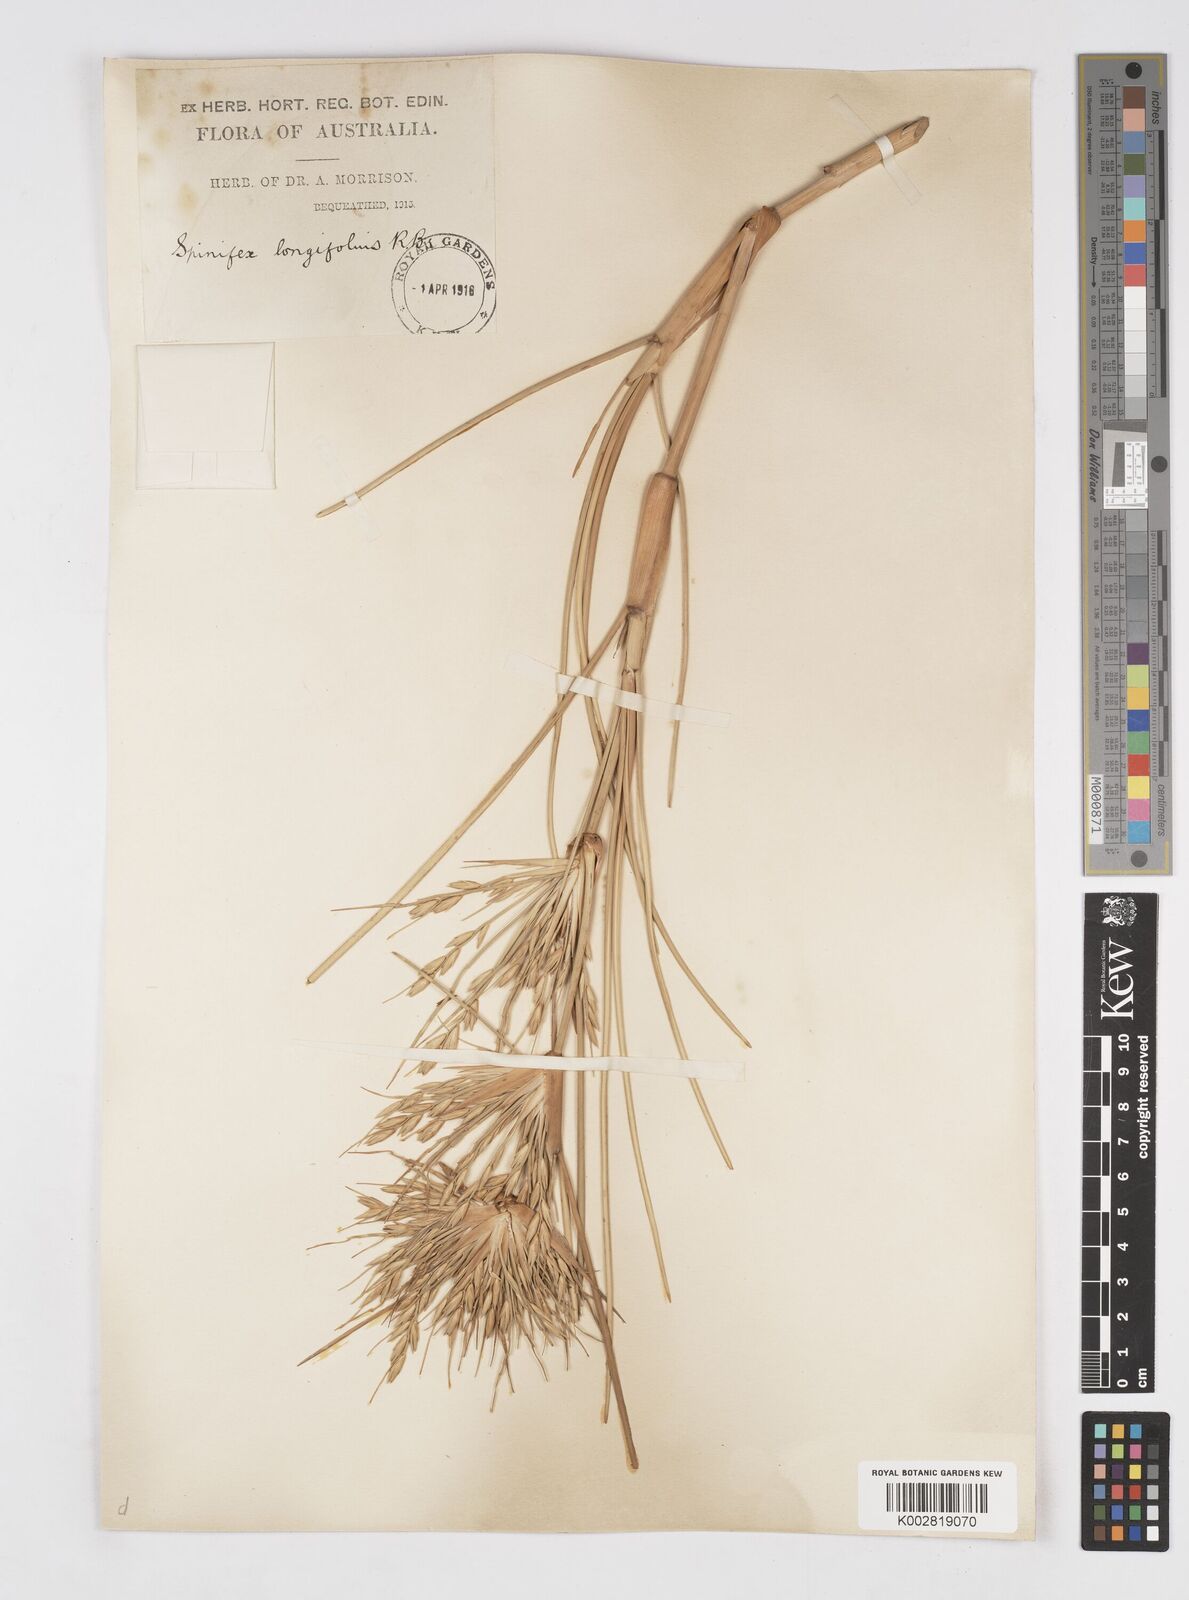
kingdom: Plantae
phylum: Tracheophyta
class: Liliopsida
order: Poales
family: Poaceae
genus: Spinifex
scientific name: Spinifex longifolius
